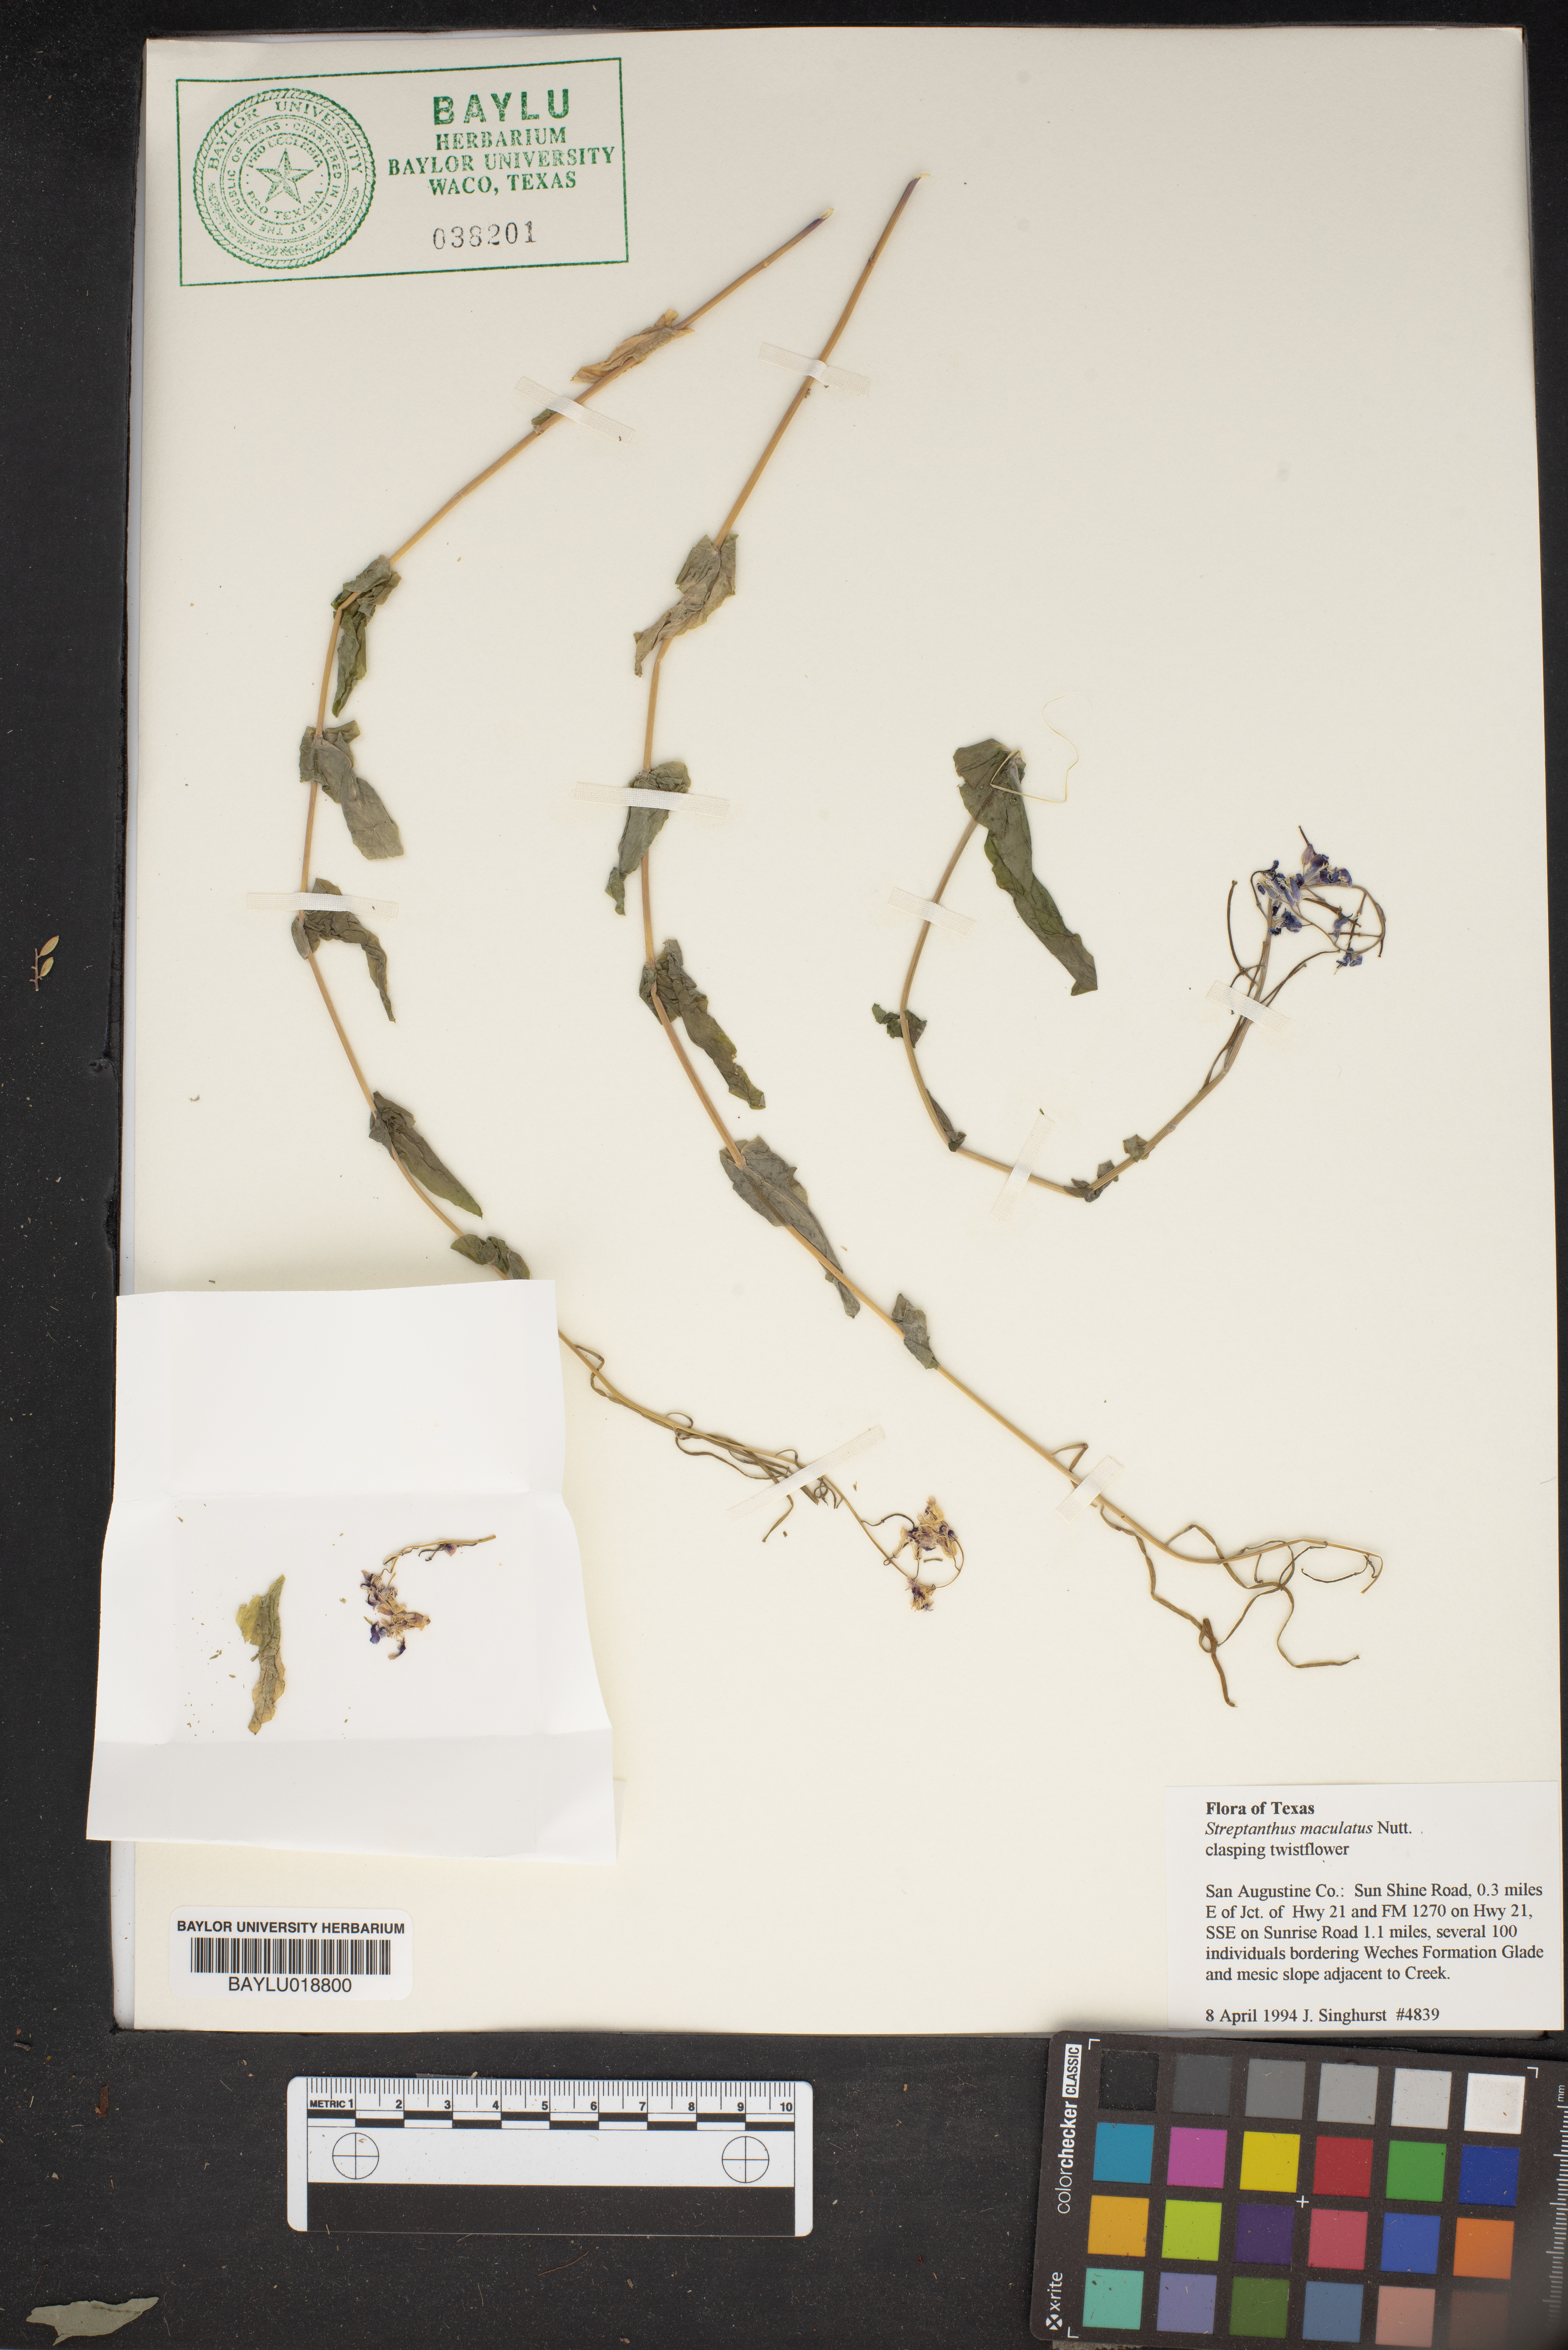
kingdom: Plantae
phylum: Tracheophyta
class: Magnoliopsida
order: Brassicales
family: Brassicaceae
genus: Streptanthus
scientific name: Streptanthus maculatus
